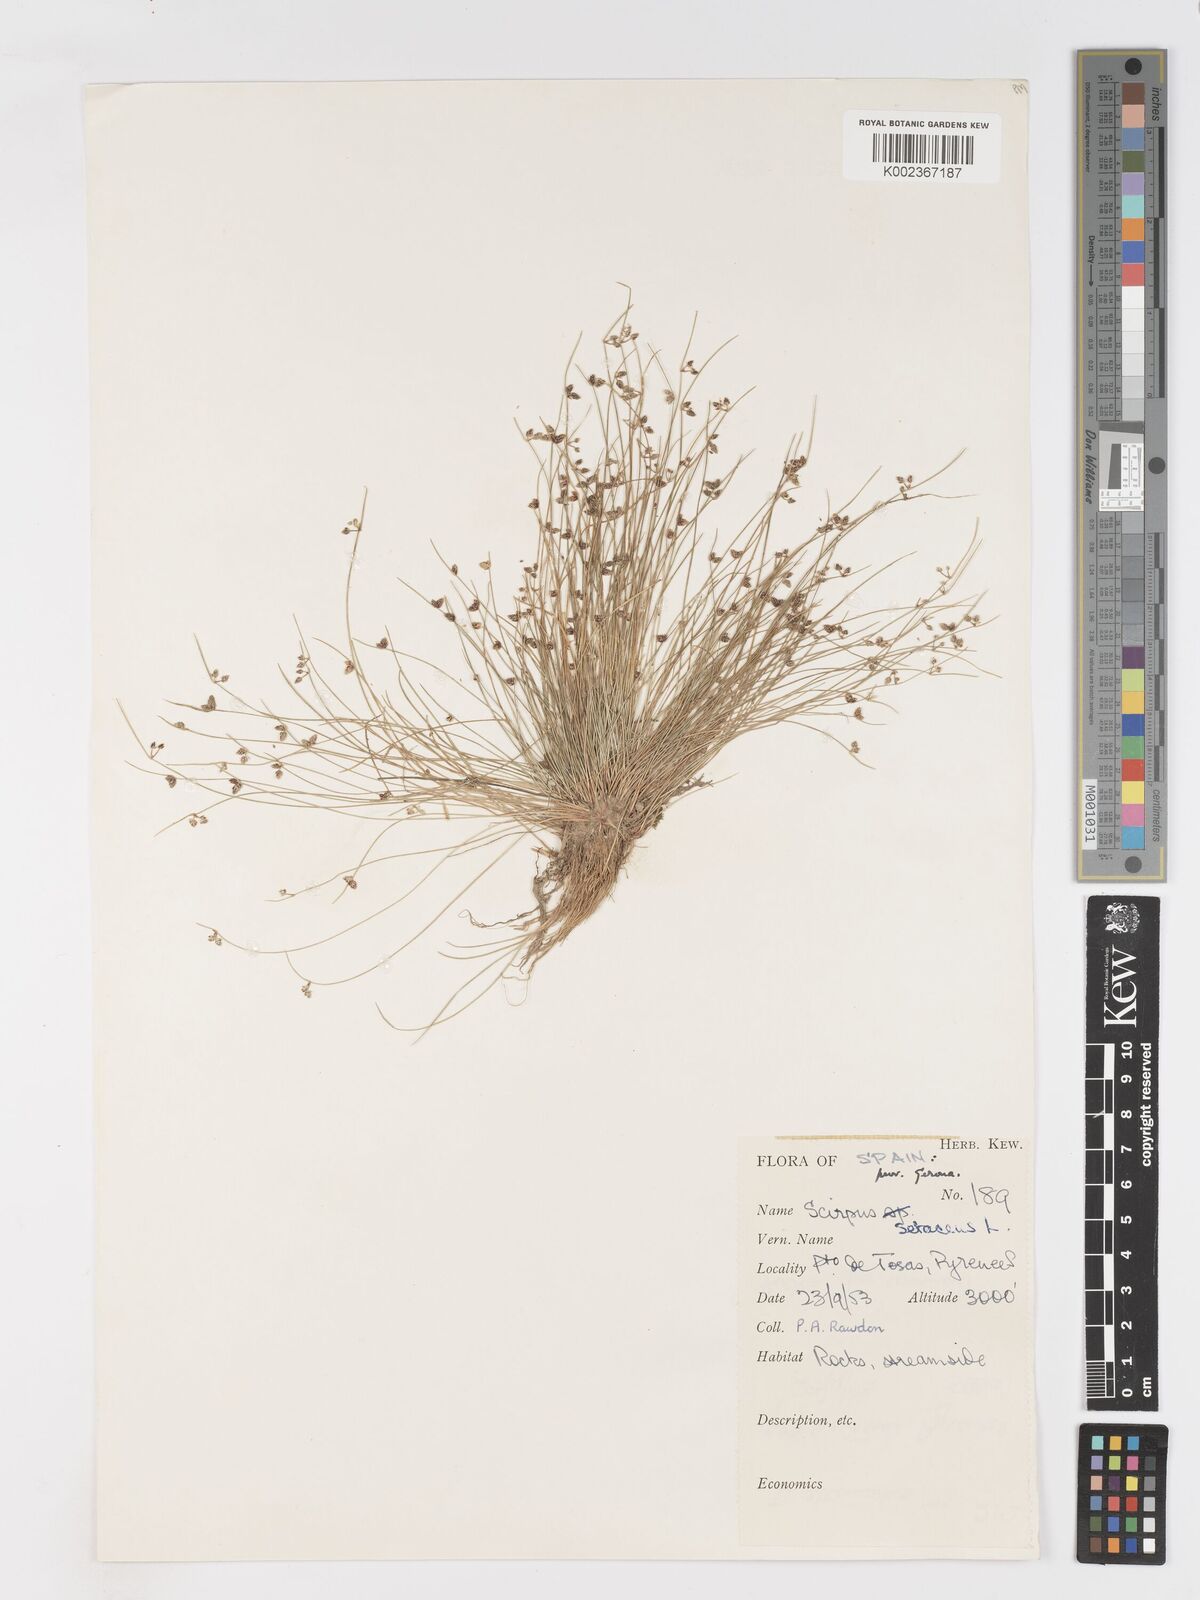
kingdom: Plantae
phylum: Tracheophyta
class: Liliopsida
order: Poales
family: Cyperaceae
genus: Isolepis
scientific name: Isolepis setacea
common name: Bristle club-rush
